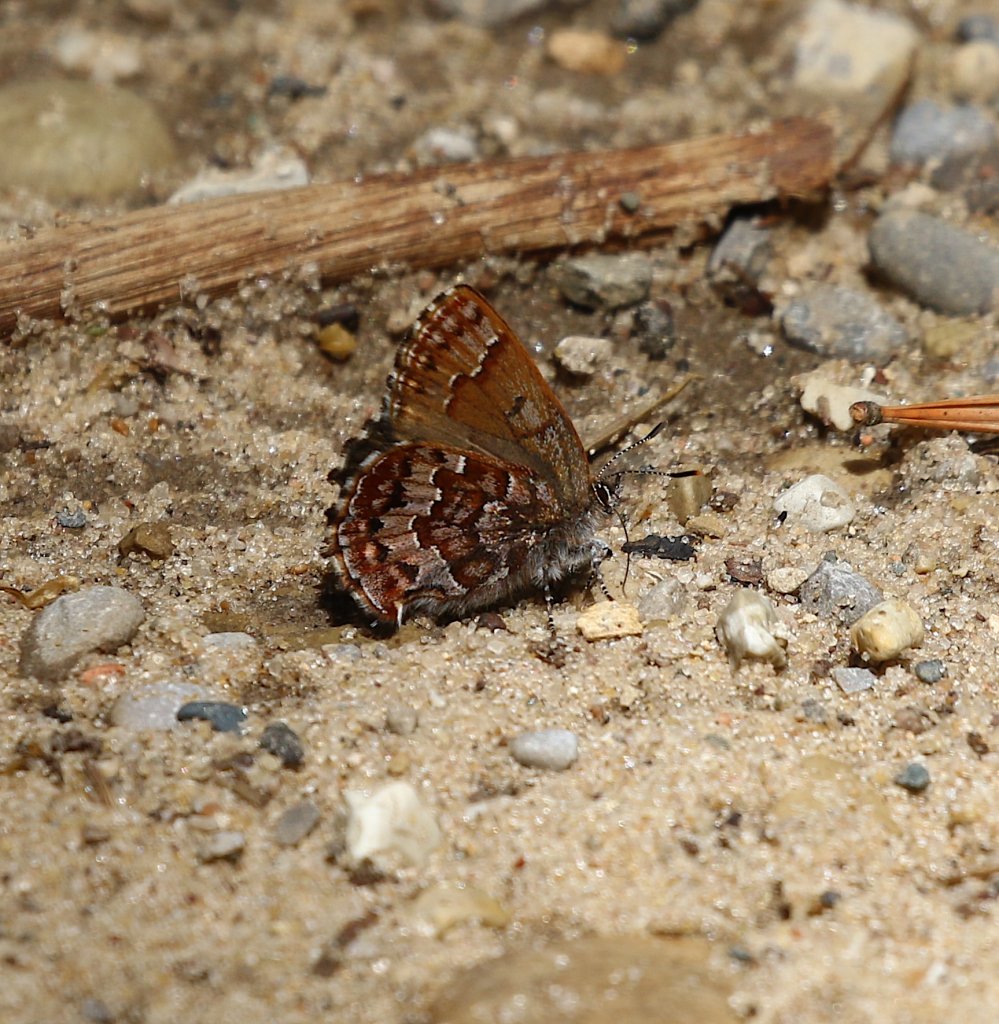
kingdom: Animalia
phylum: Arthropoda
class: Insecta
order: Lepidoptera
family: Lycaenidae
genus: Incisalia
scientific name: Incisalia niphon
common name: Eastern Pine Elfin
